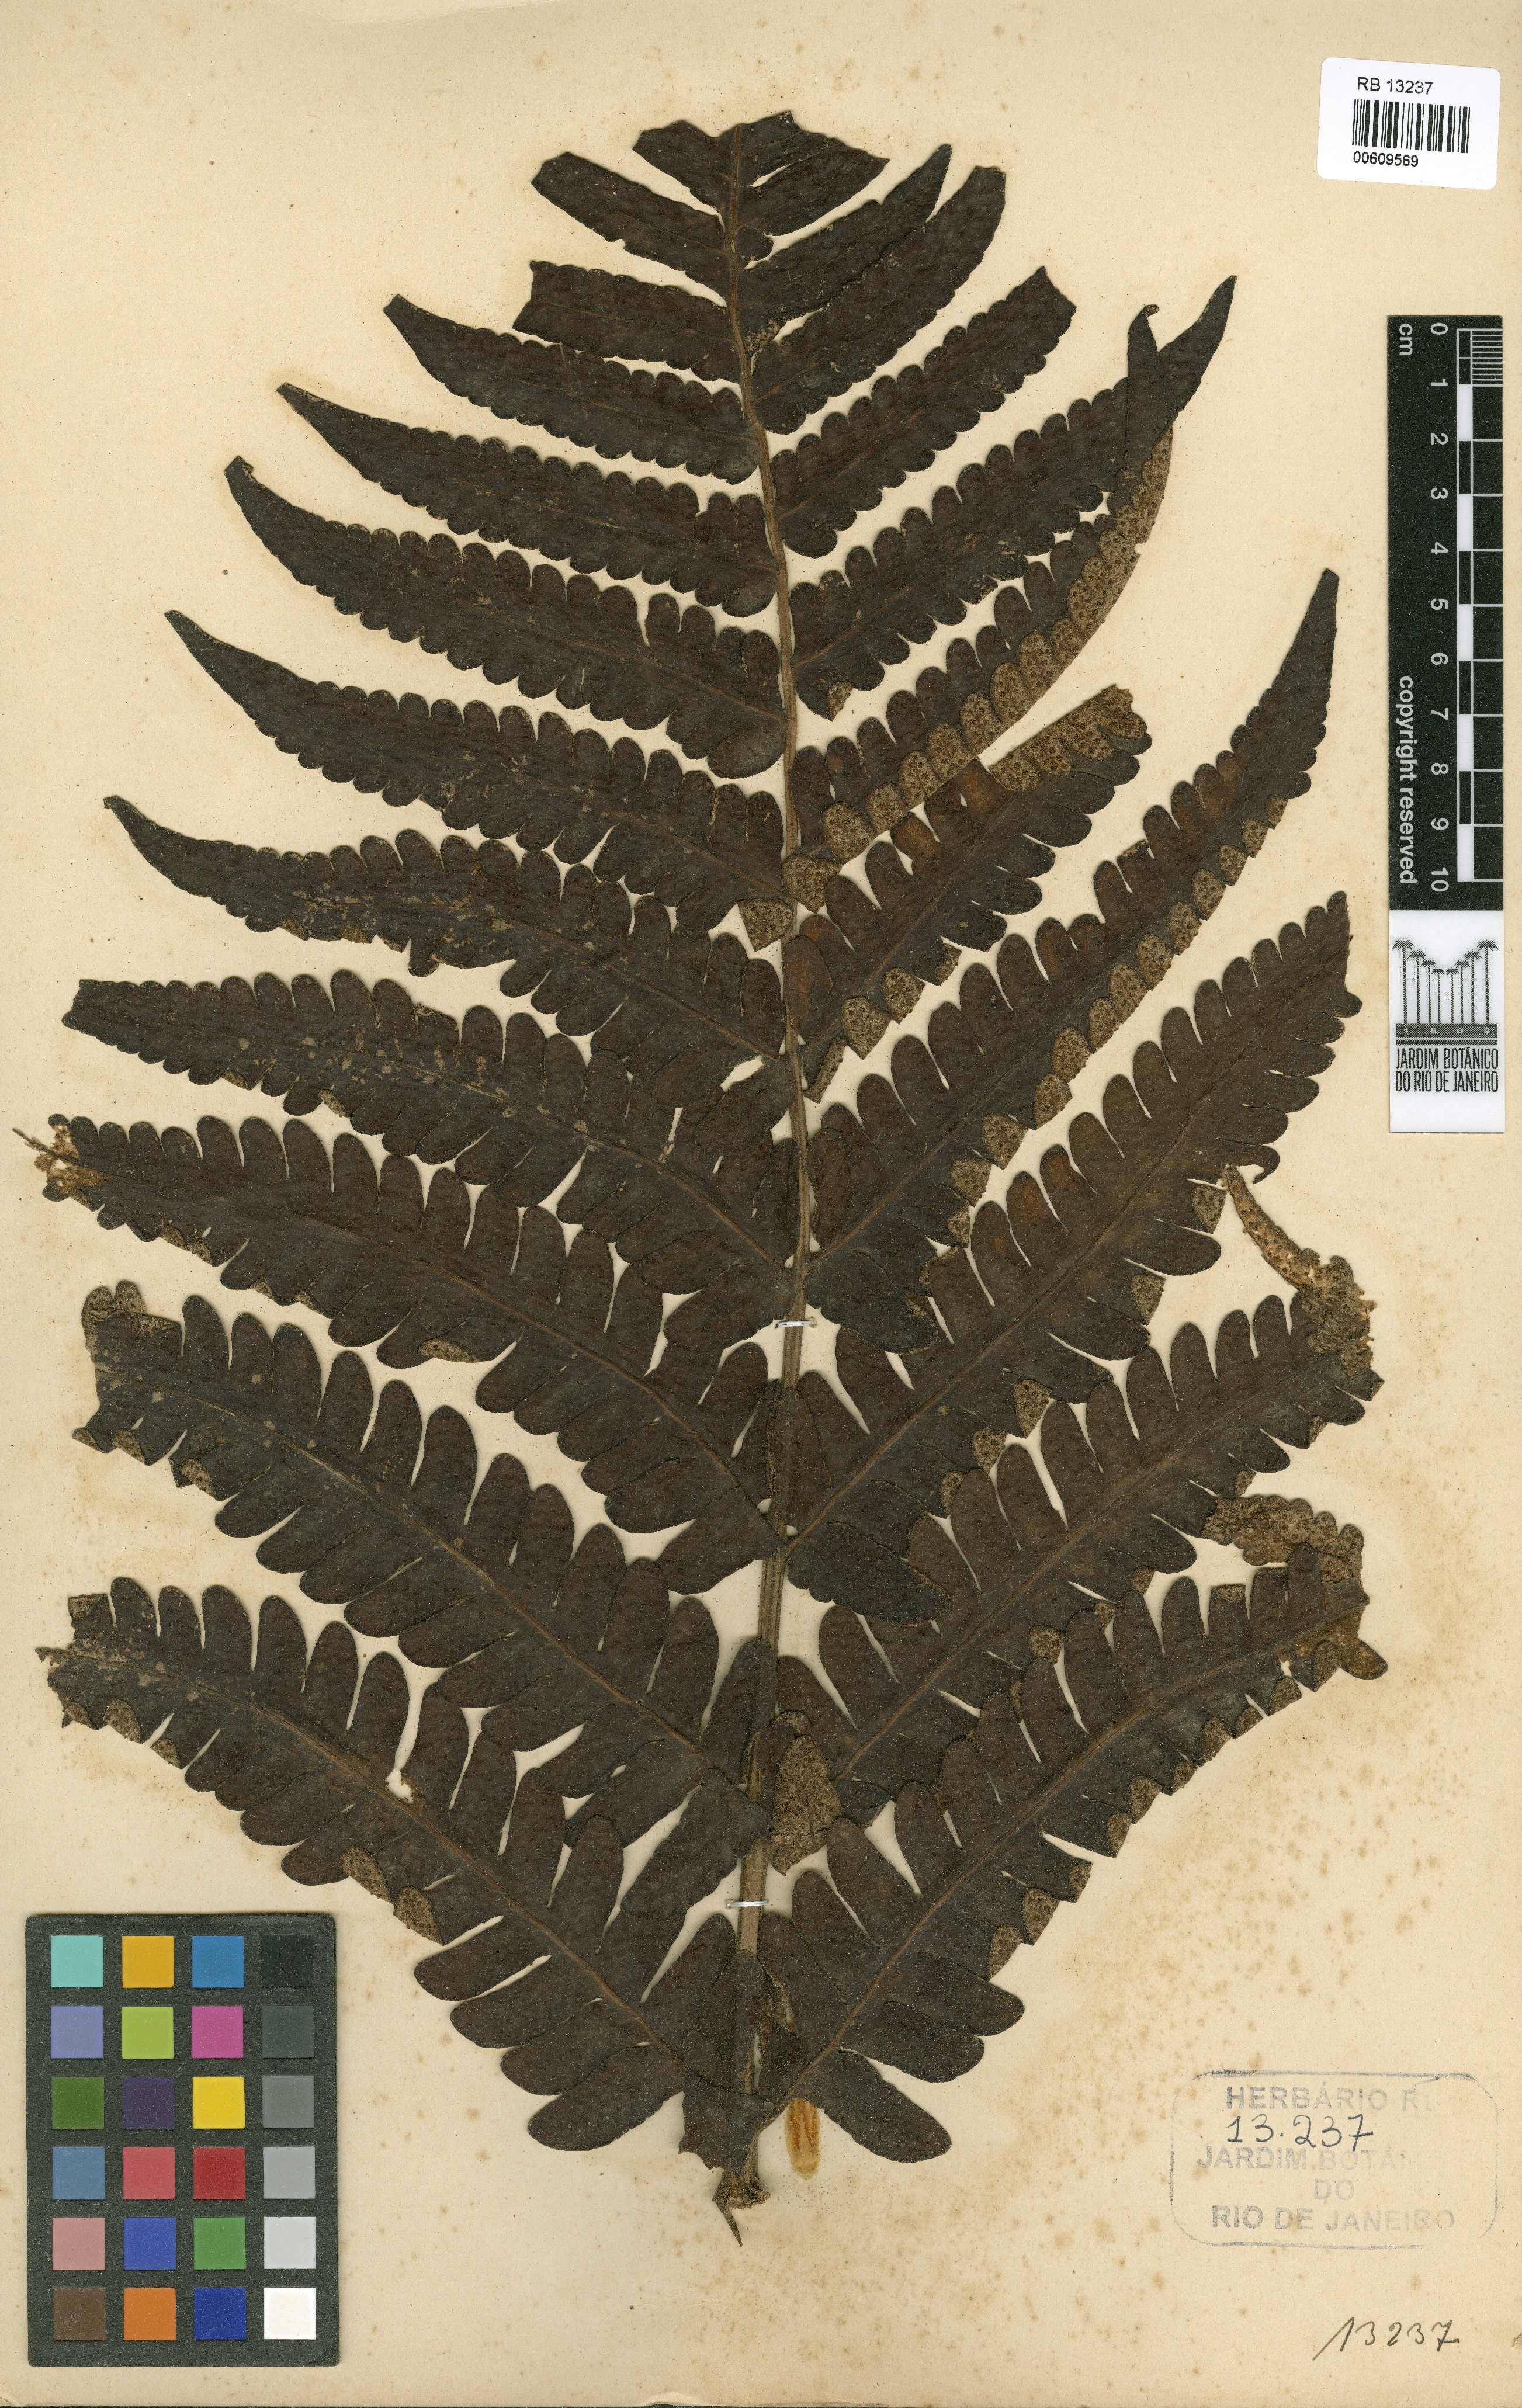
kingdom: Plantae
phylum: Tracheophyta
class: Polypodiopsida
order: Polypodiales
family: Dryopteridaceae
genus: Megalastrum
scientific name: Megalastrum grande
